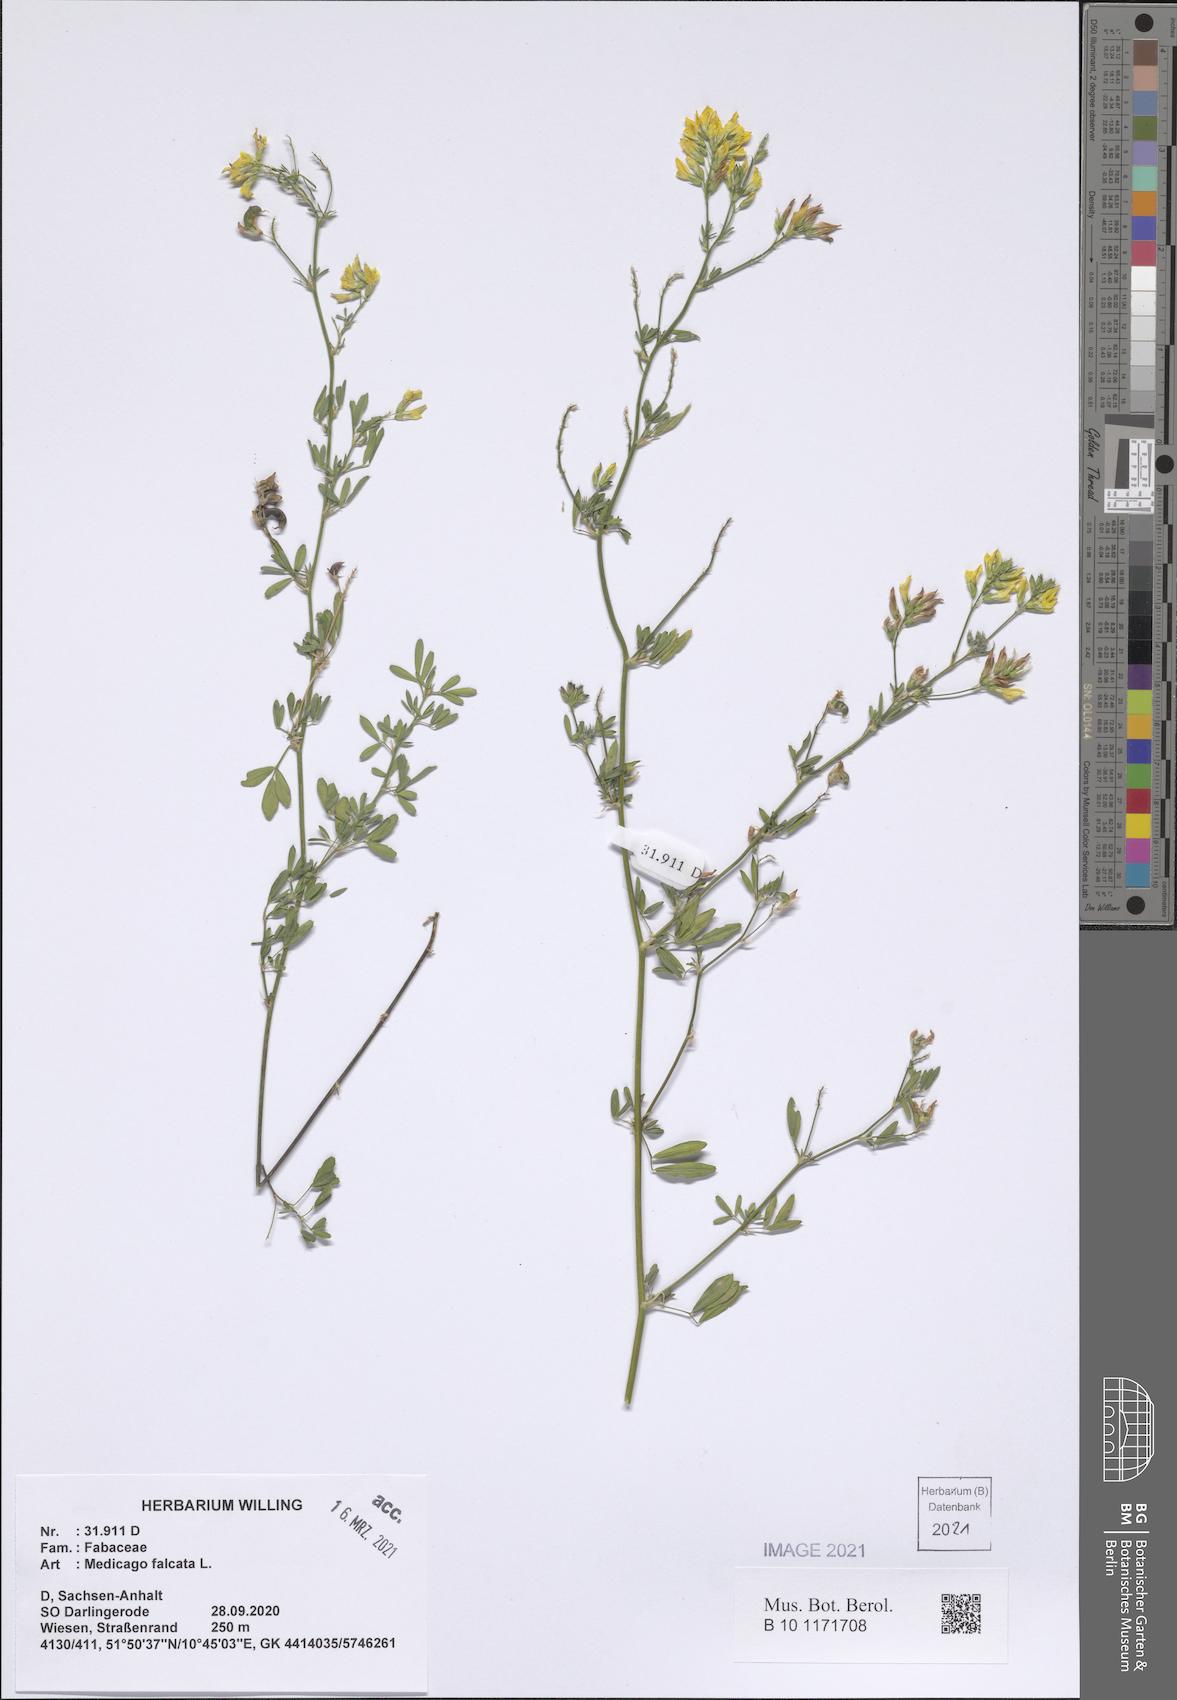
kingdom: Plantae
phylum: Tracheophyta
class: Magnoliopsida
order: Fabales
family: Fabaceae
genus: Medicago
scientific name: Medicago falcata
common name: Sickle medick
